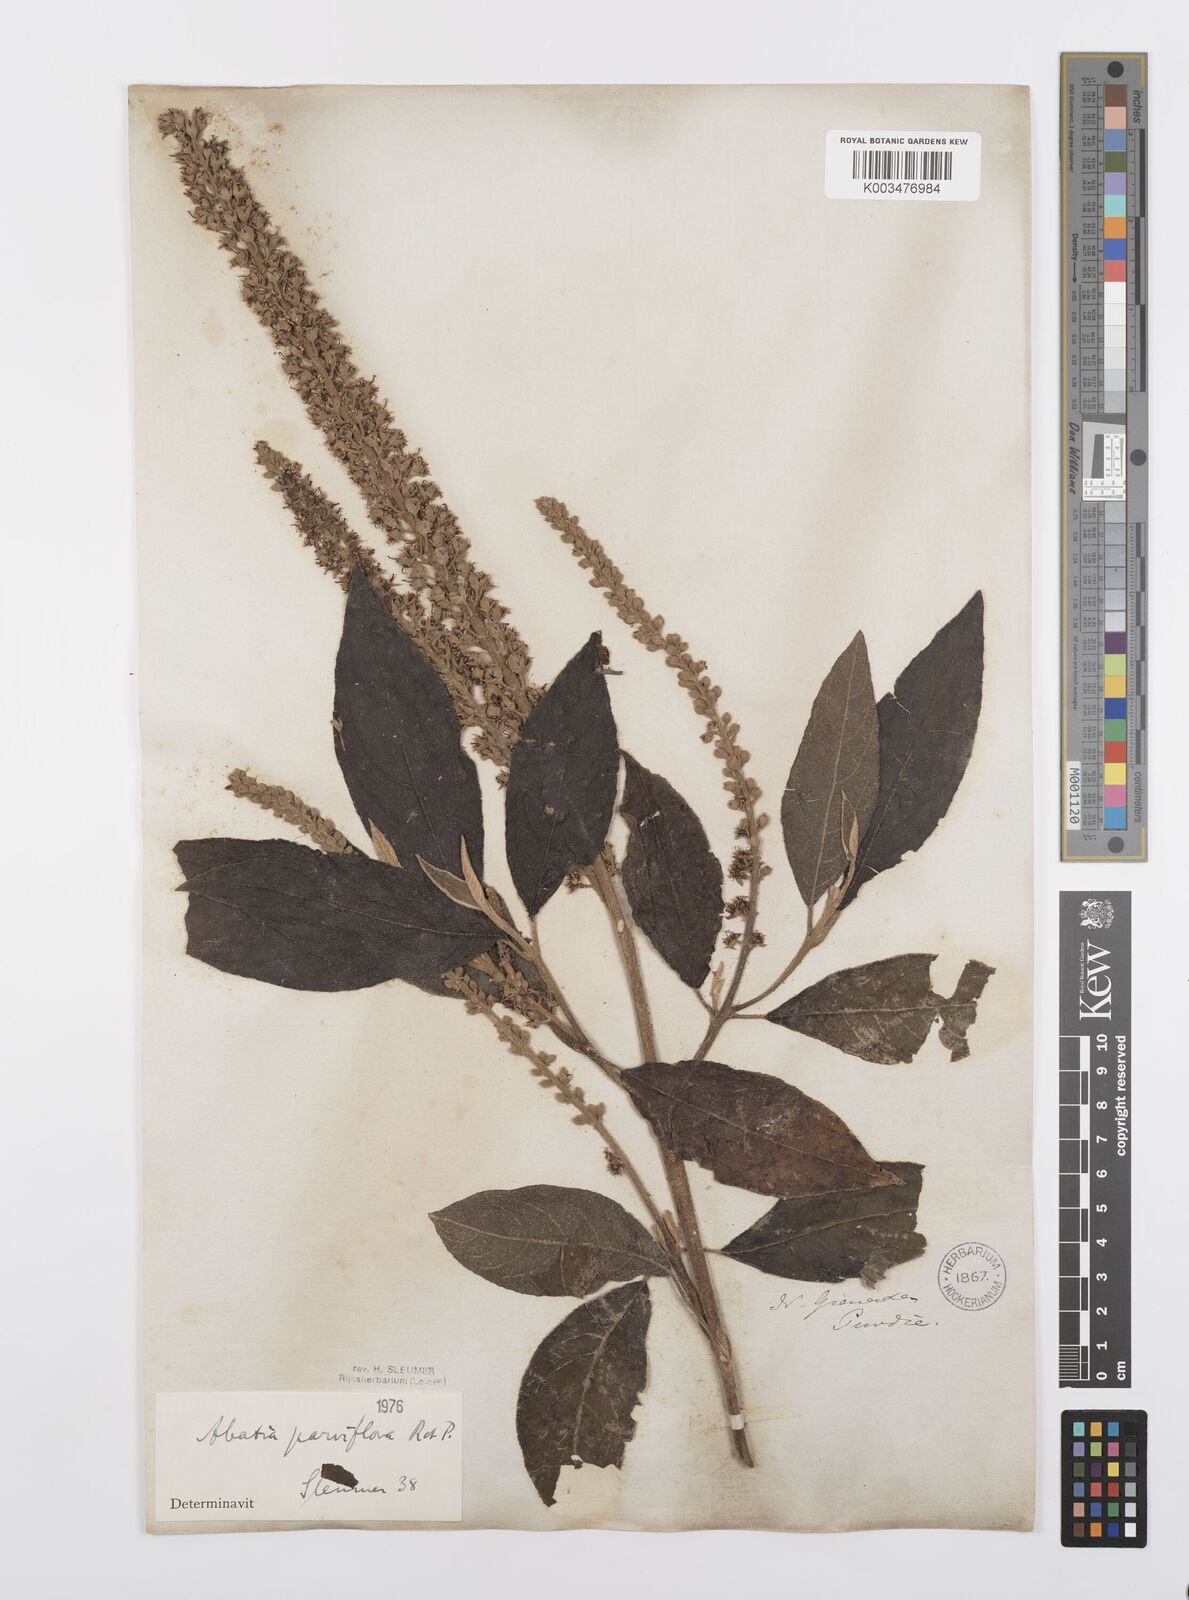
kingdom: Plantae
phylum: Tracheophyta
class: Magnoliopsida
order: Malpighiales
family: Salicaceae
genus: Abatia
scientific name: Abatia parviflora
